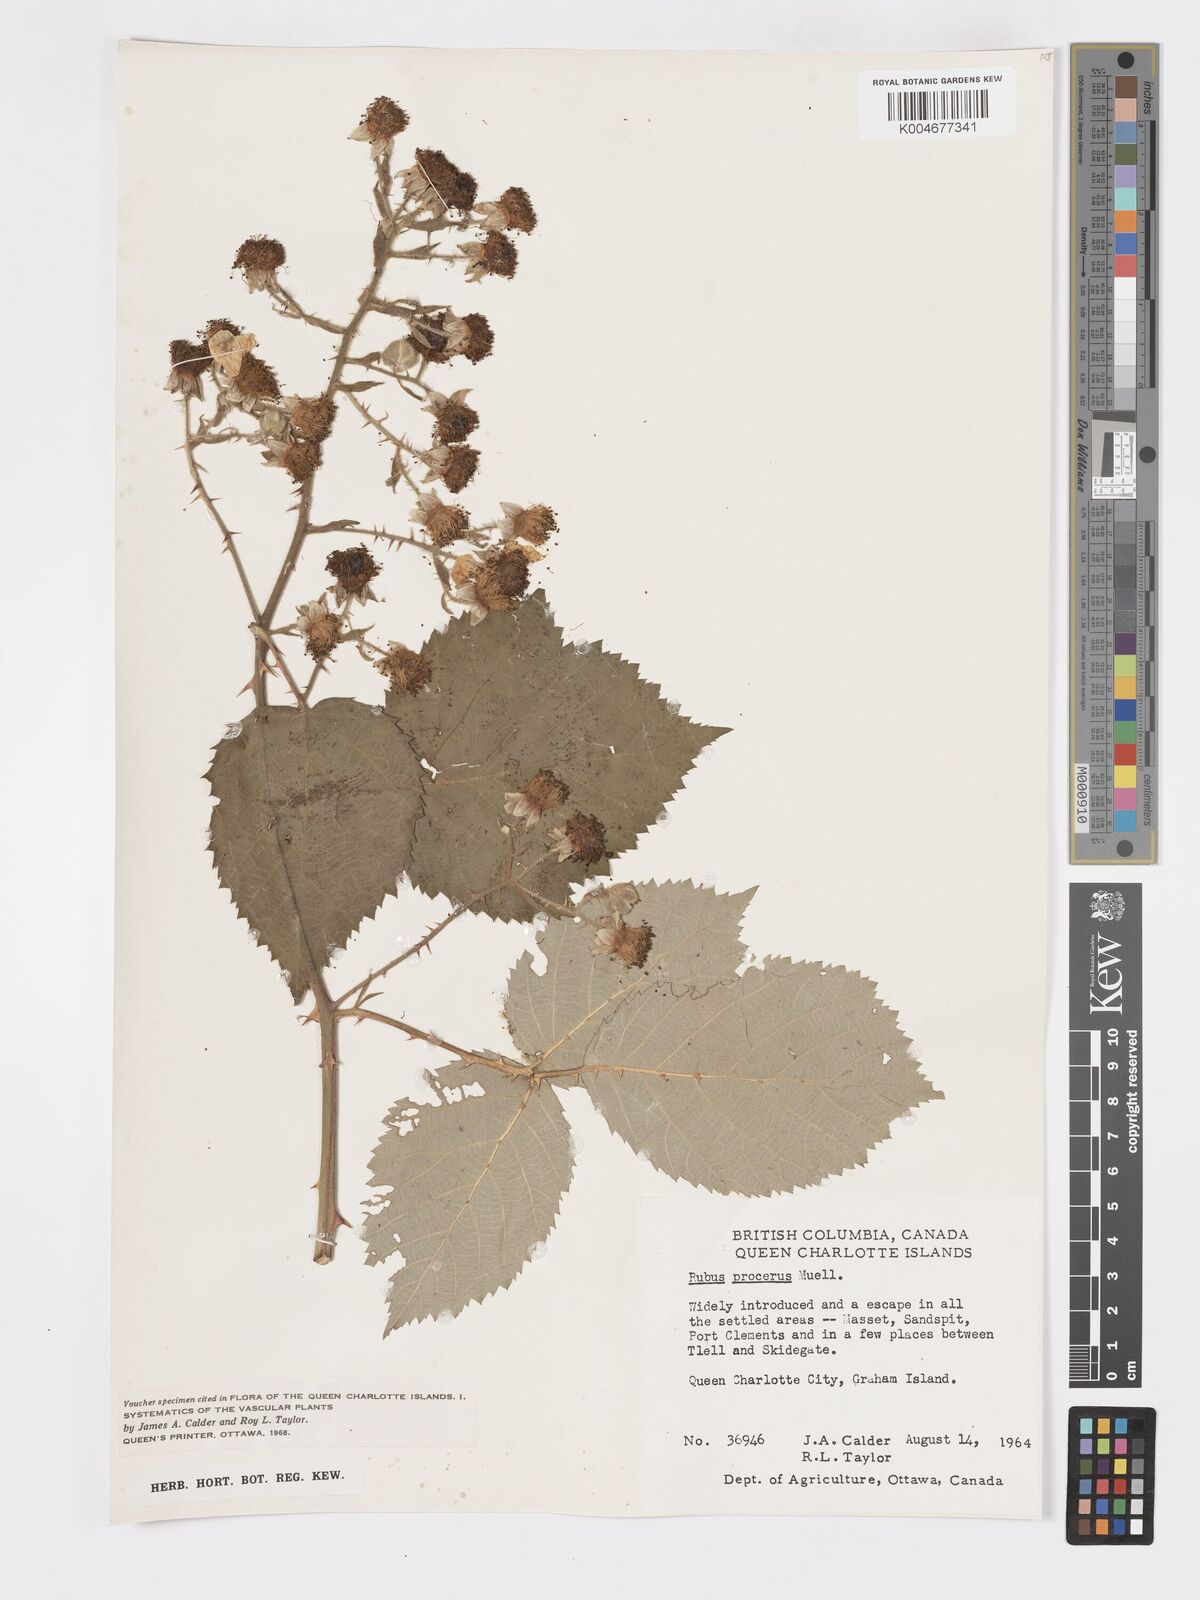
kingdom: Plantae
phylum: Tracheophyta
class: Magnoliopsida
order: Rosales
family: Rosaceae
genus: Rubus
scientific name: Rubus praecox
